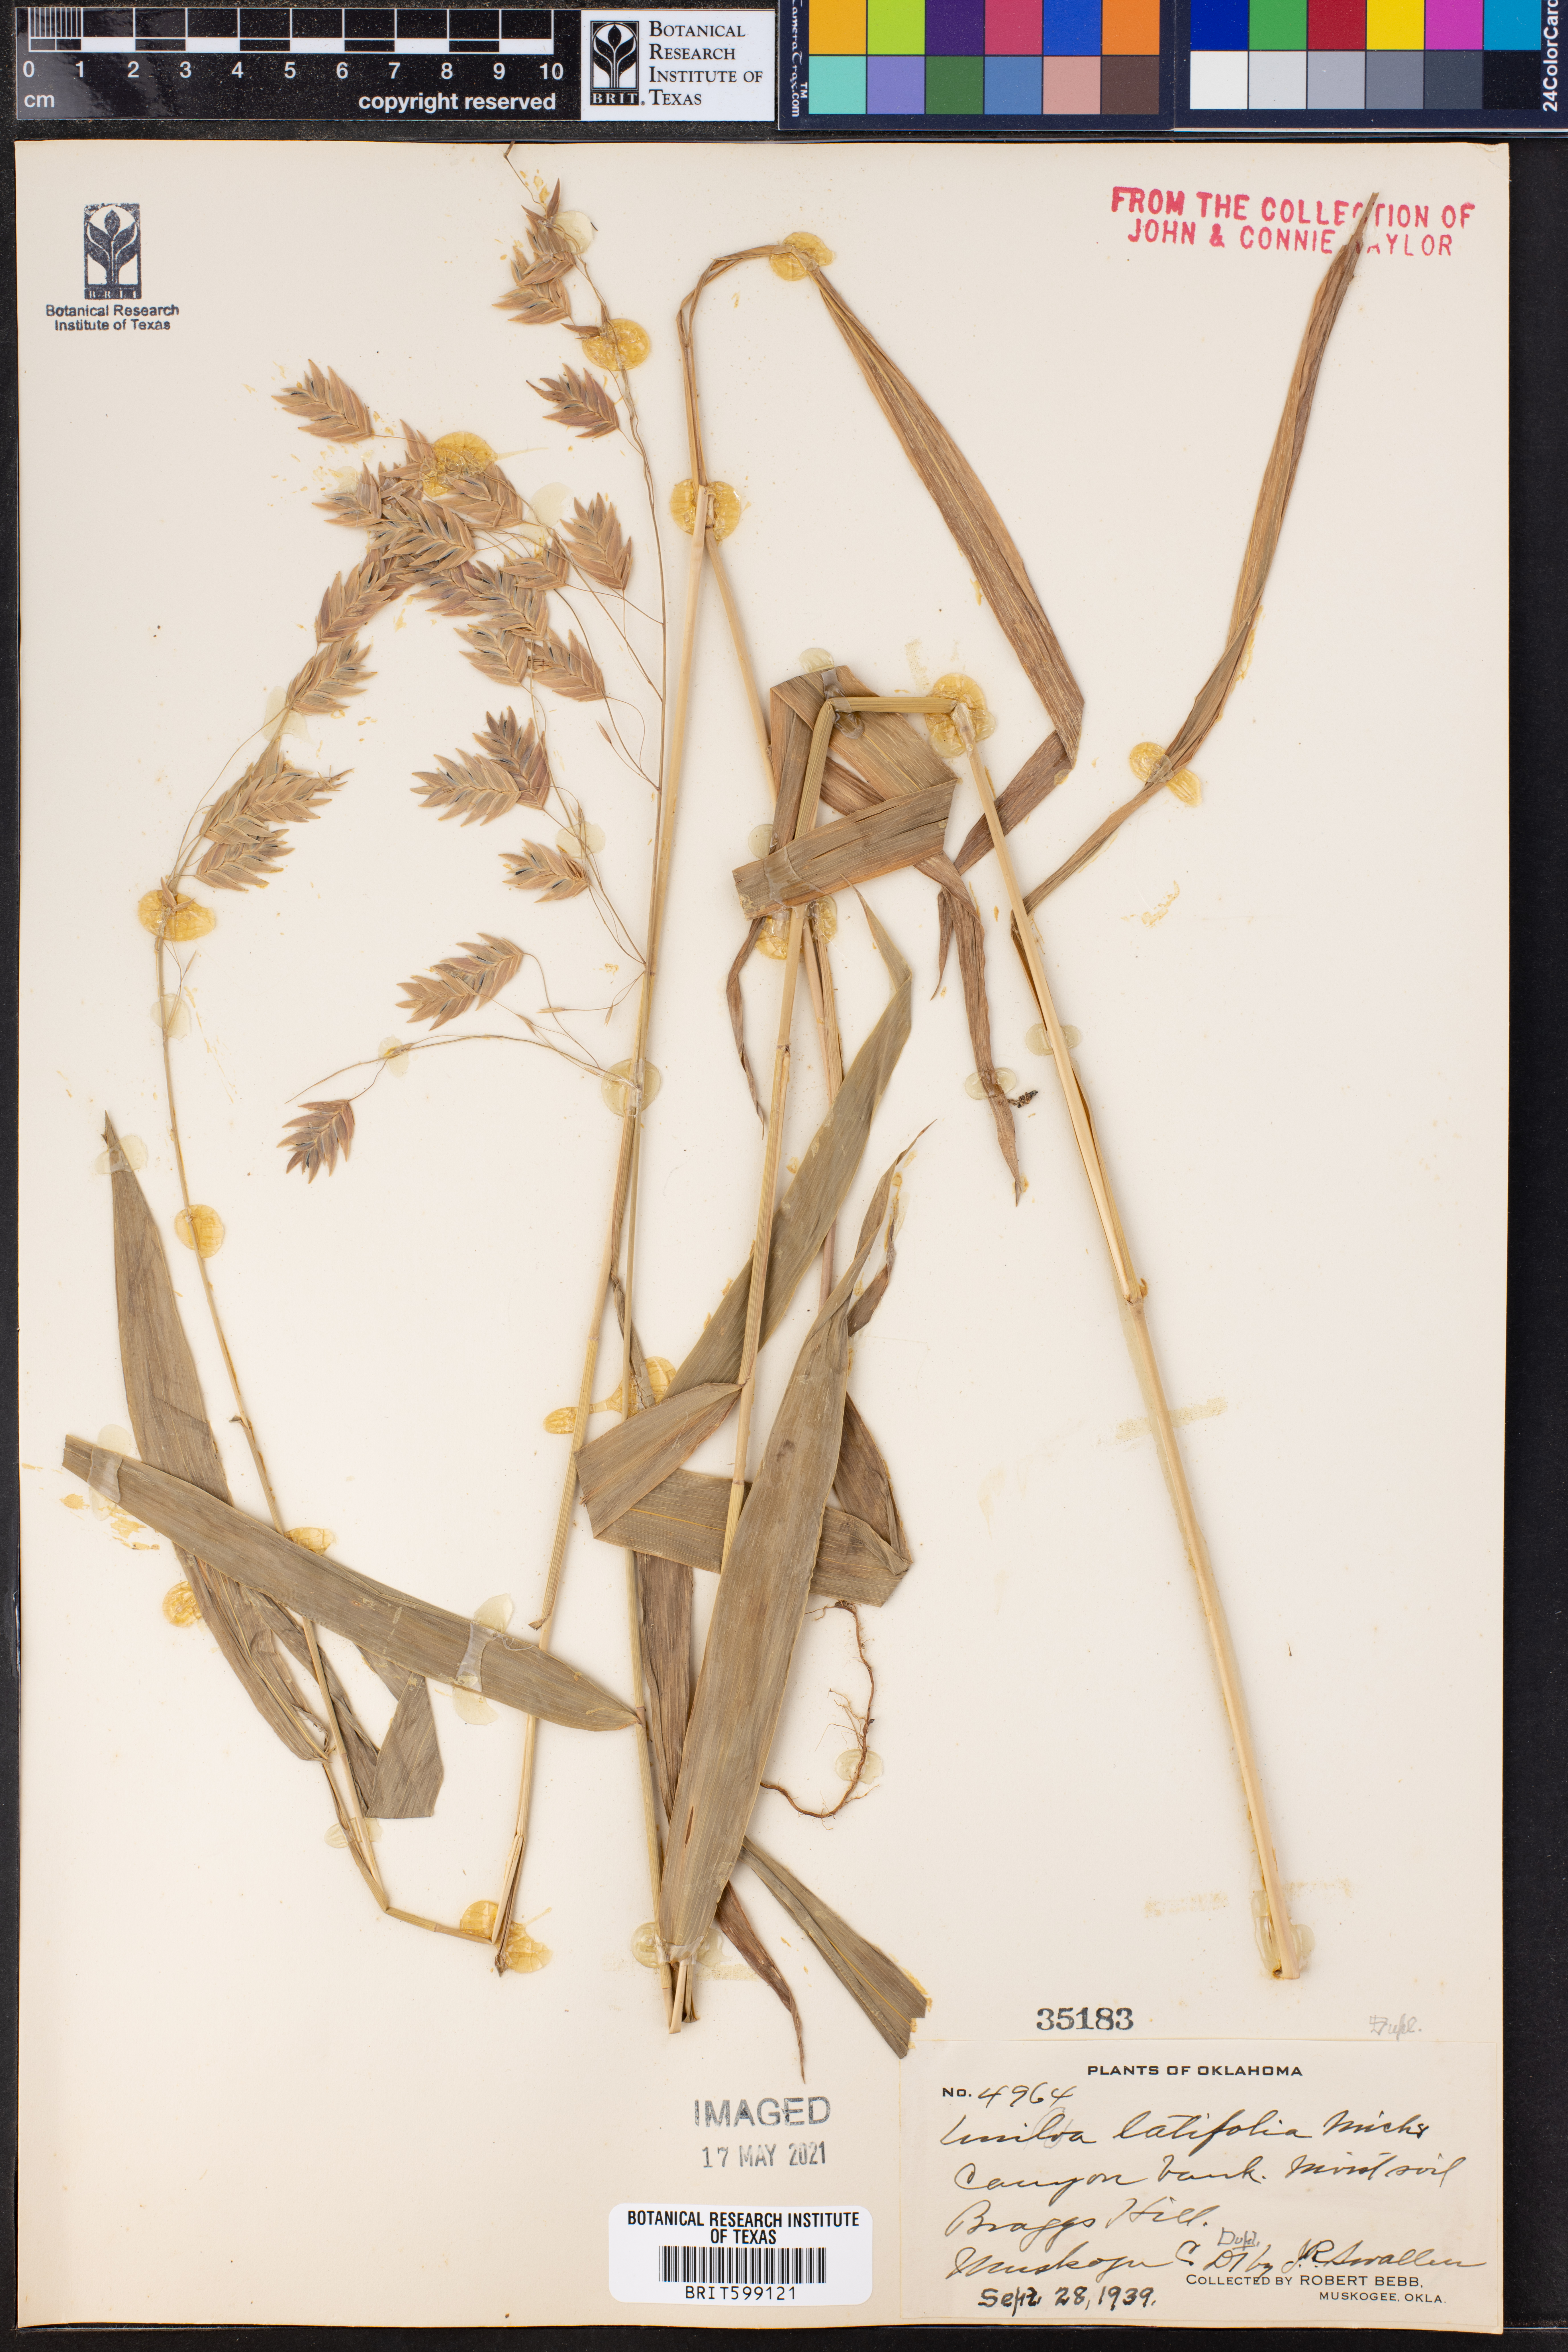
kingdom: Plantae
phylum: Tracheophyta
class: Liliopsida
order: Poales
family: Poaceae
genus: Chasmanthium
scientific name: Chasmanthium latifolium
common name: Broad-leaved chasmanthium
